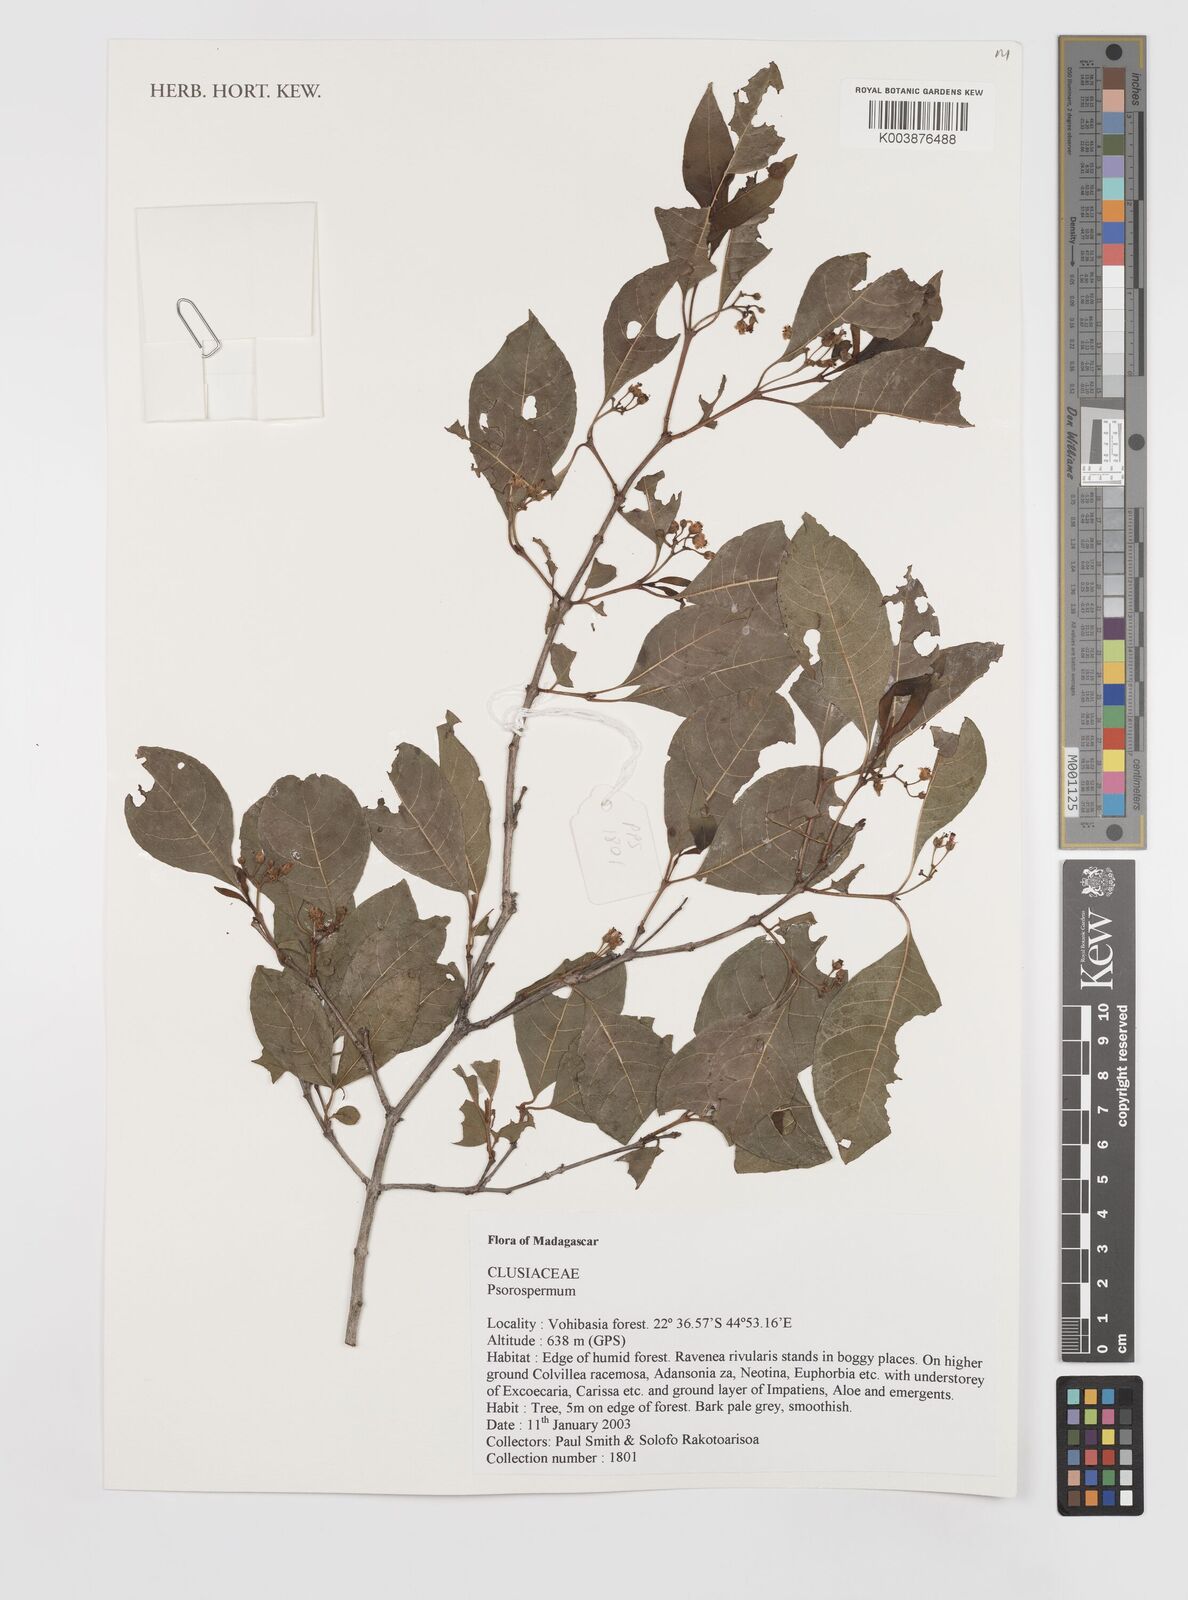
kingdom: Plantae
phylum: Tracheophyta
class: Magnoliopsida
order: Malpighiales
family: Hypericaceae
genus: Psorospermum
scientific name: Psorospermum
